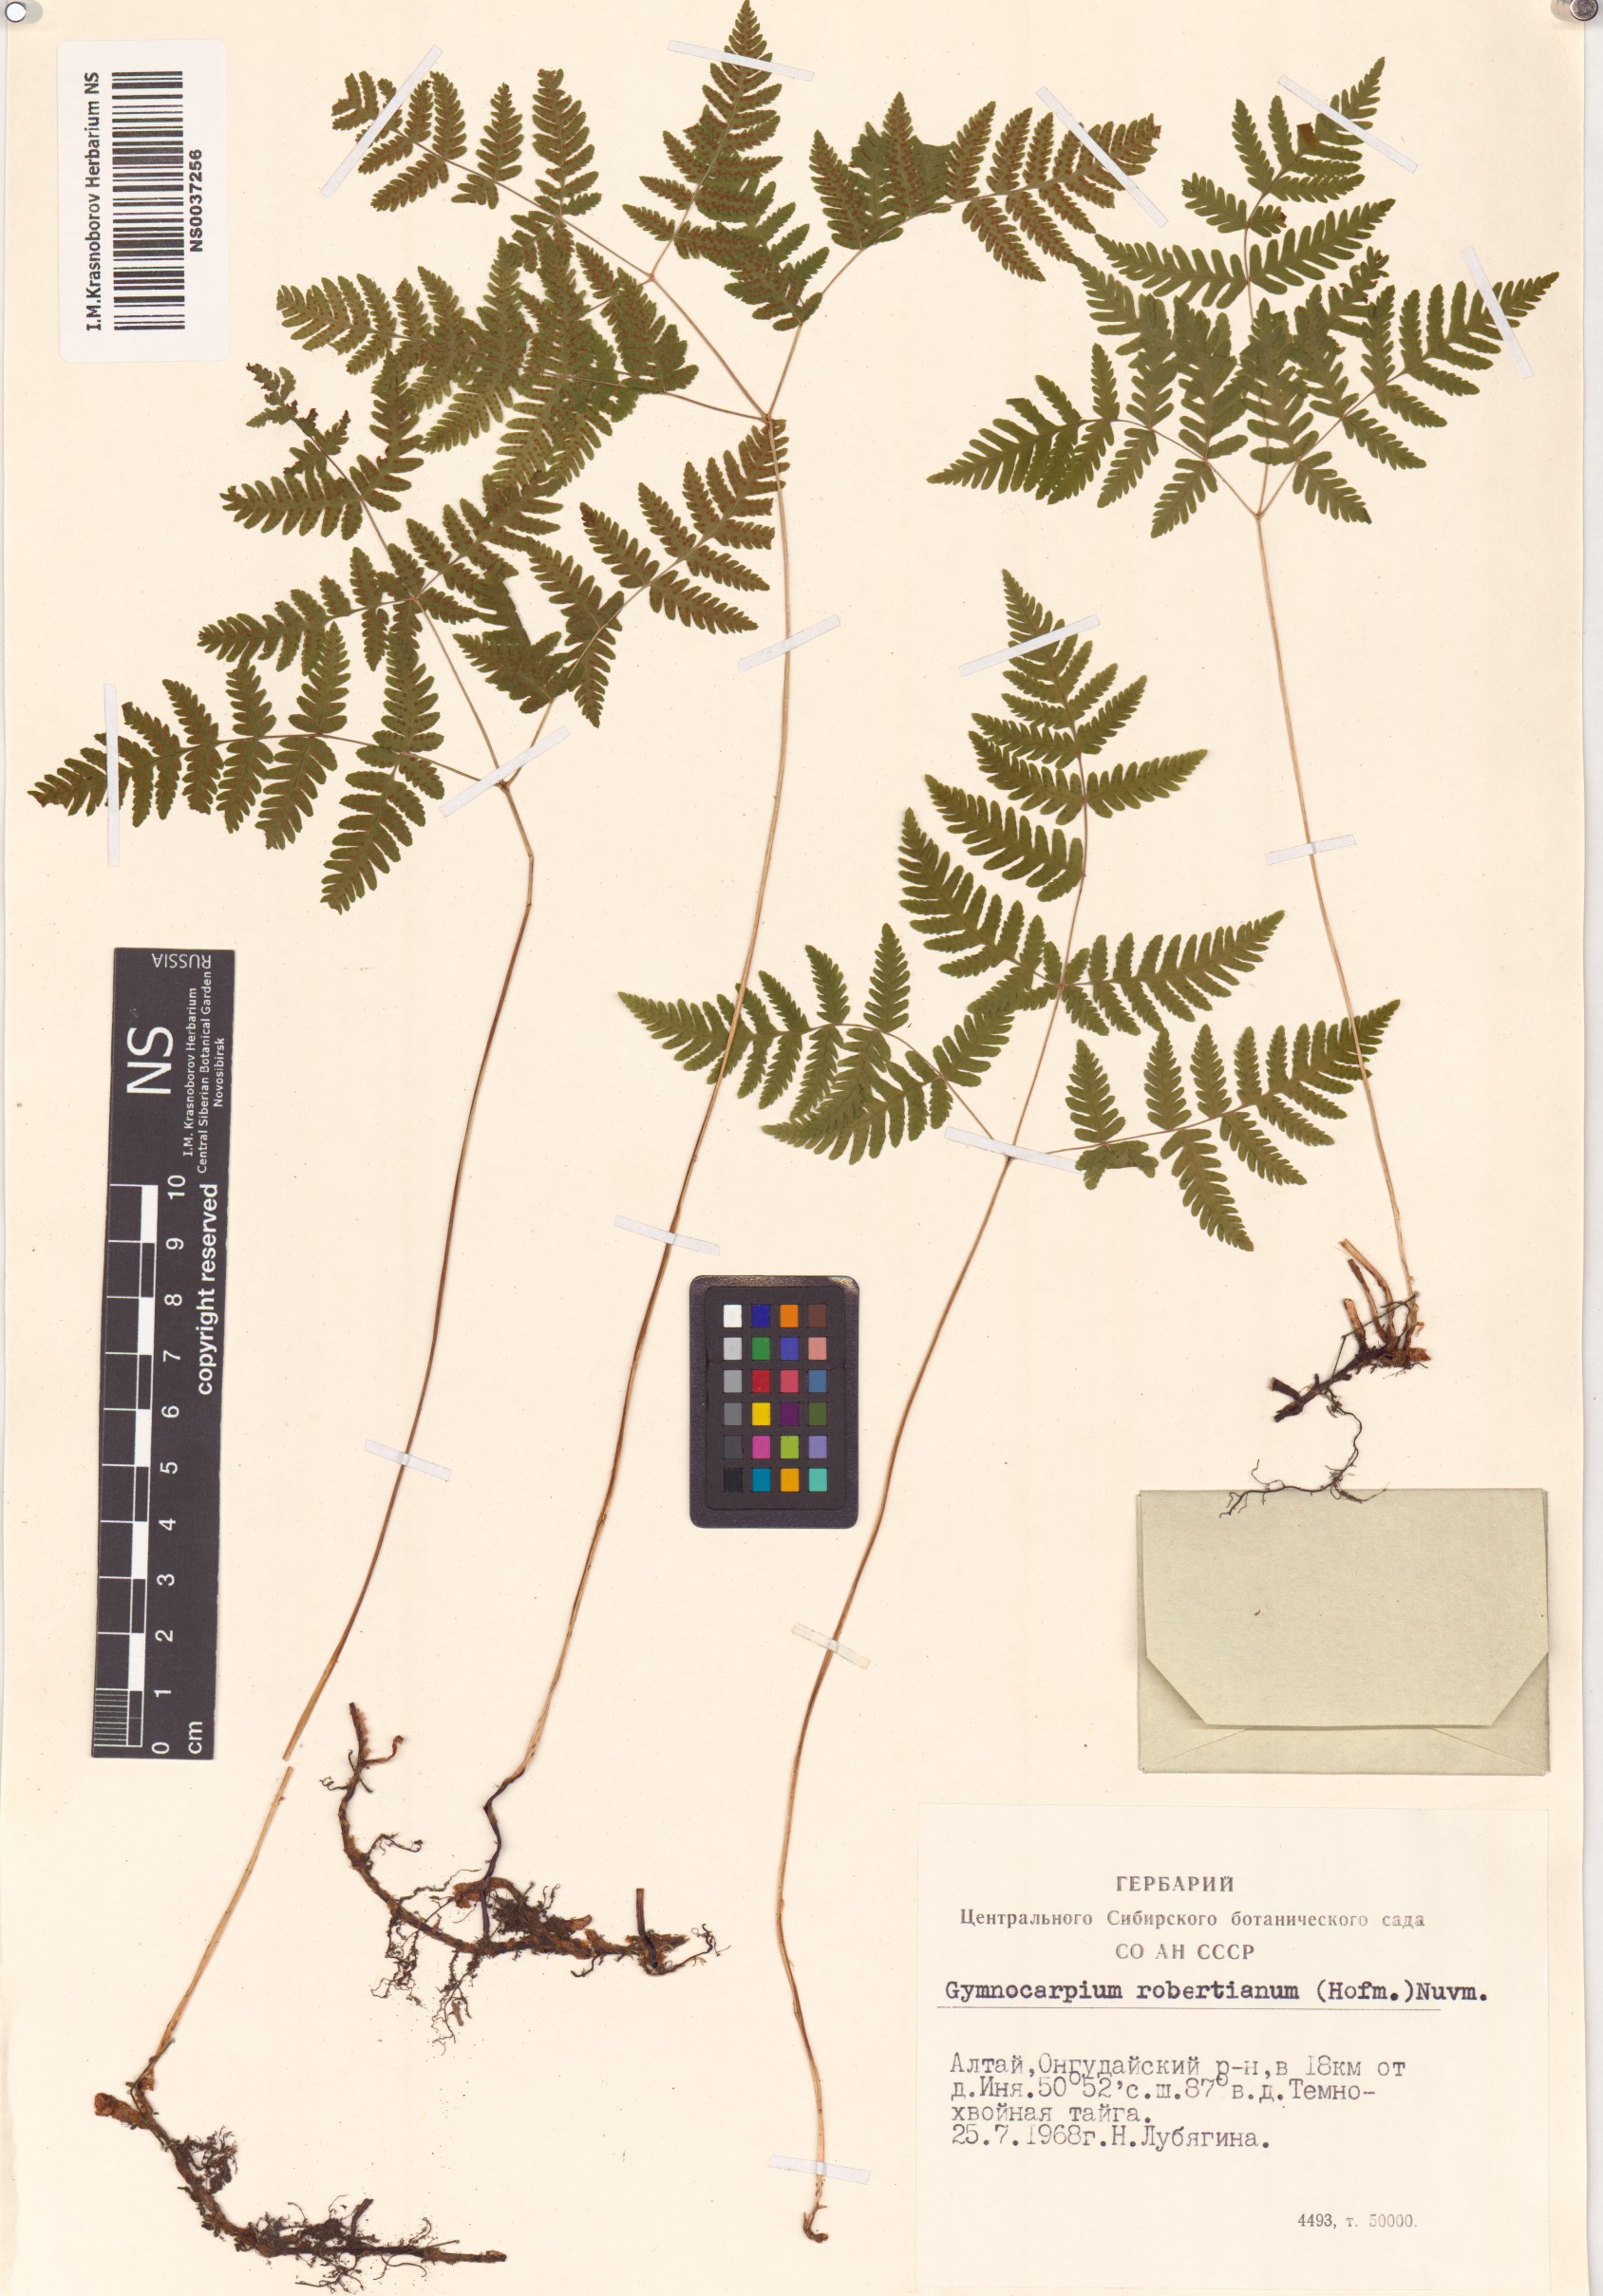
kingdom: Plantae
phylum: Tracheophyta
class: Polypodiopsida
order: Polypodiales
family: Cystopteridaceae
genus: Gymnocarpium
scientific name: Gymnocarpium robertianum
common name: Limestone fern
